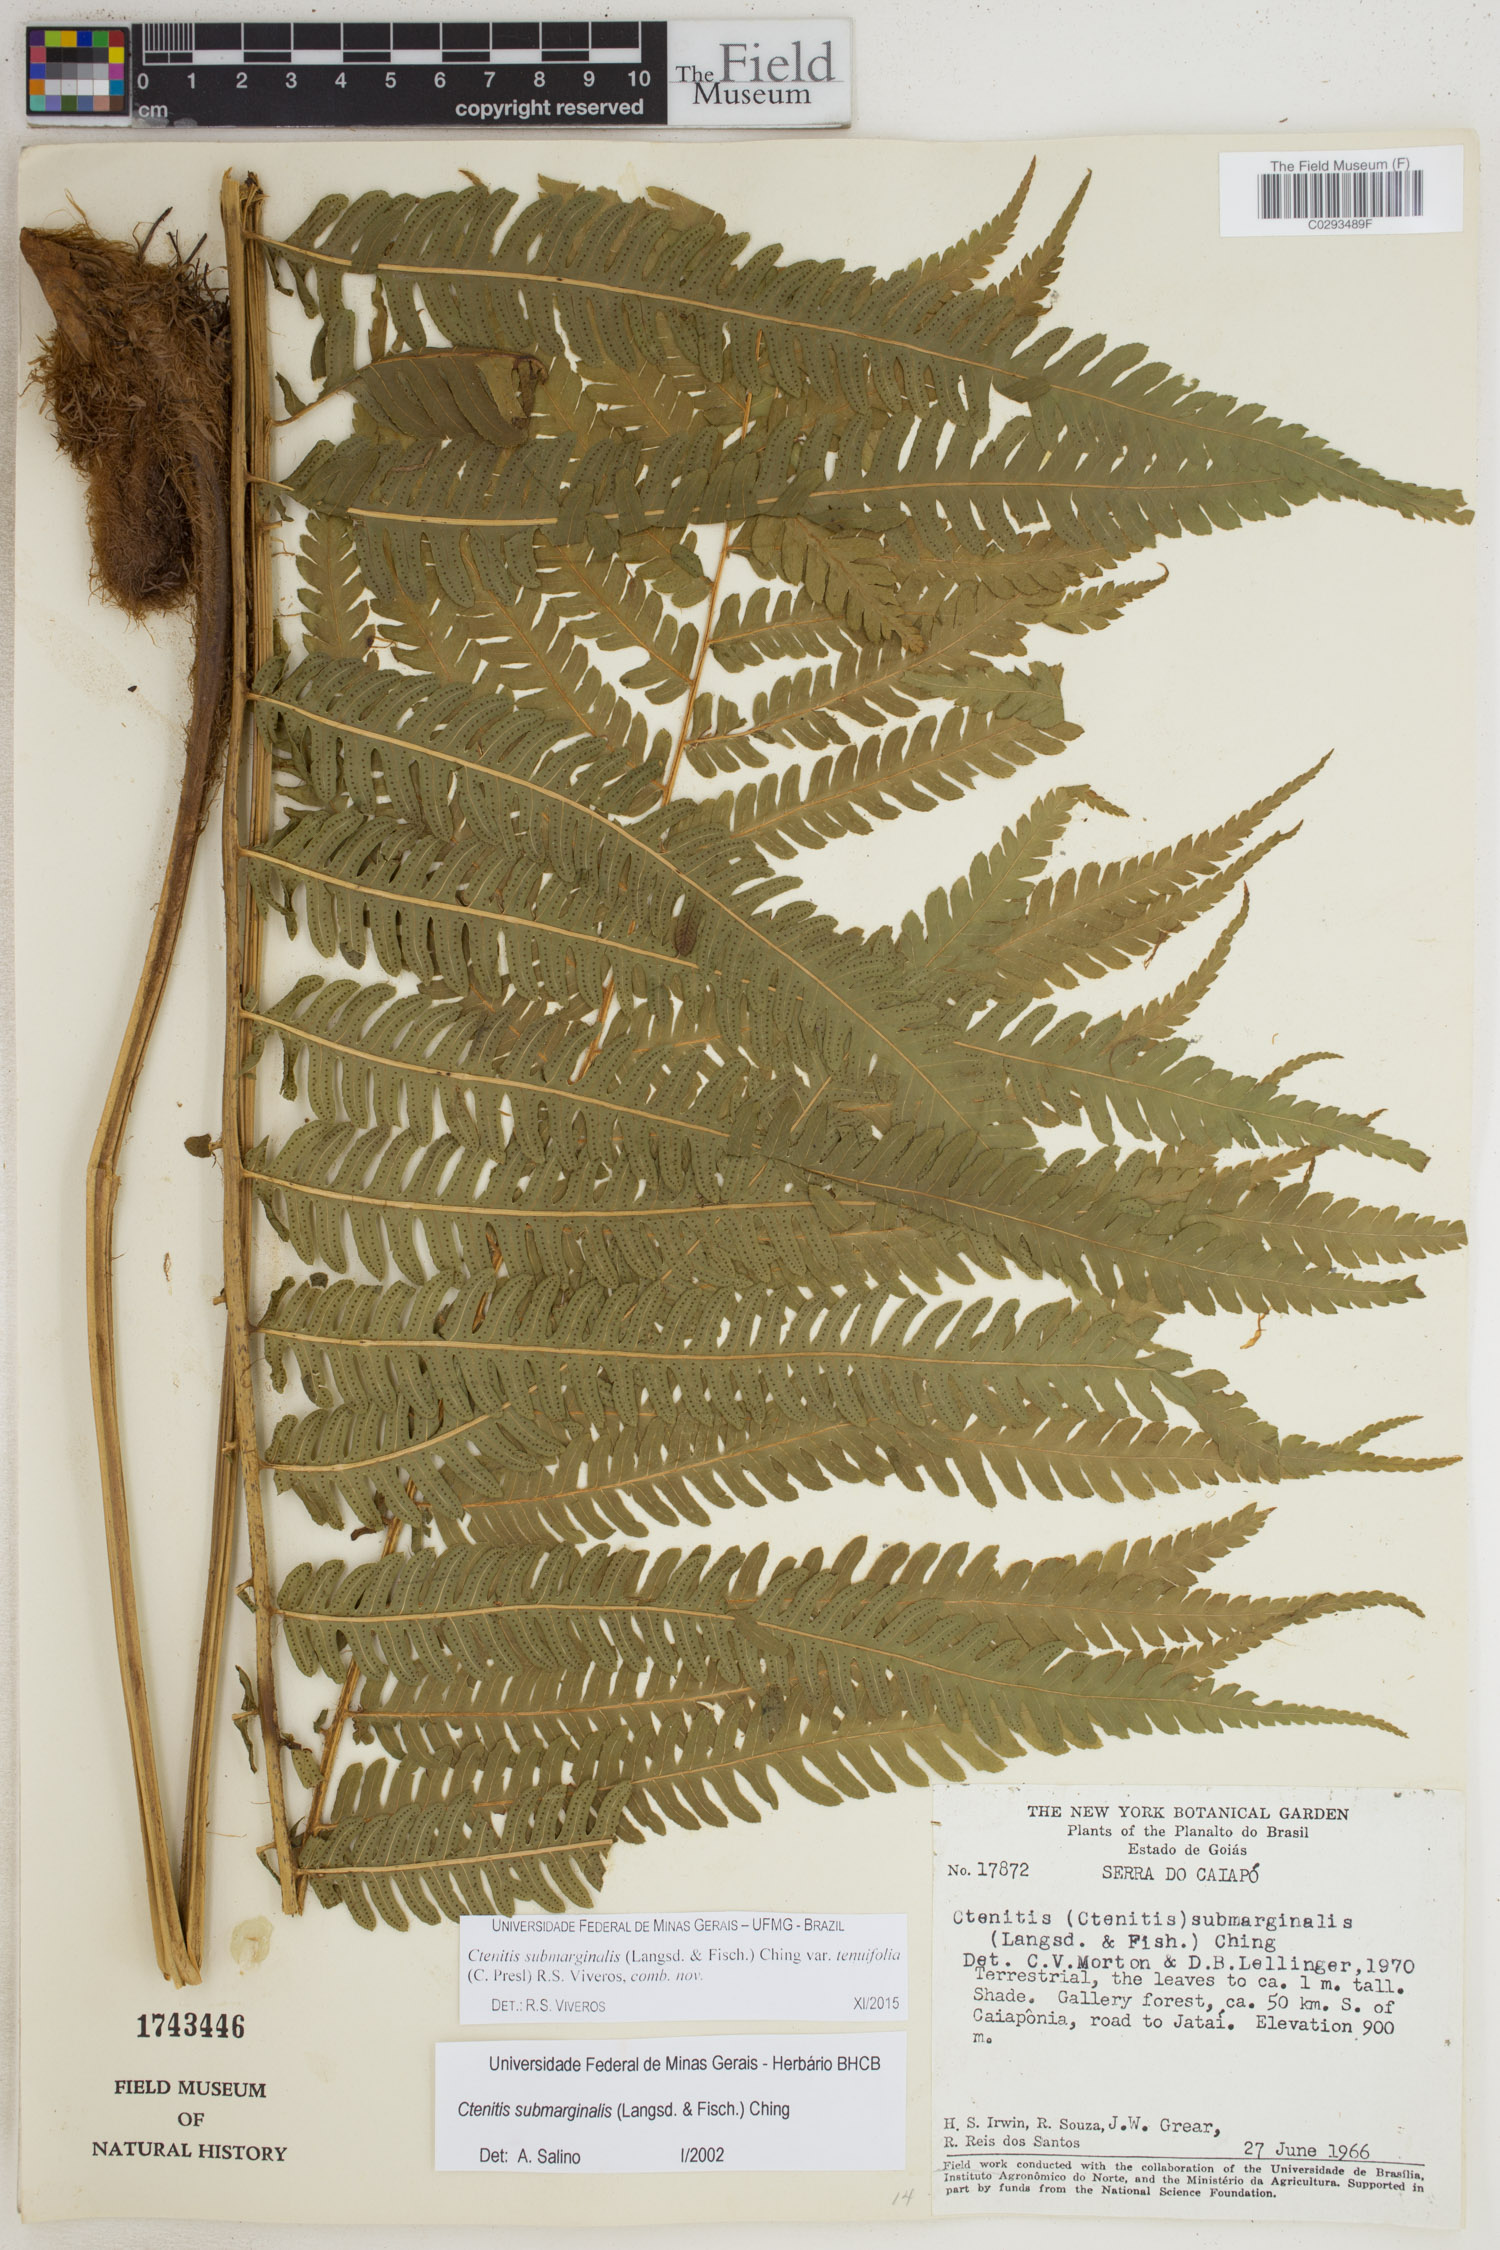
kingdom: Plantae
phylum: Tracheophyta
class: Polypodiopsida
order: Polypodiales
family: Dryopteridaceae
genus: Ctenitis
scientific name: Ctenitis submarginalis
